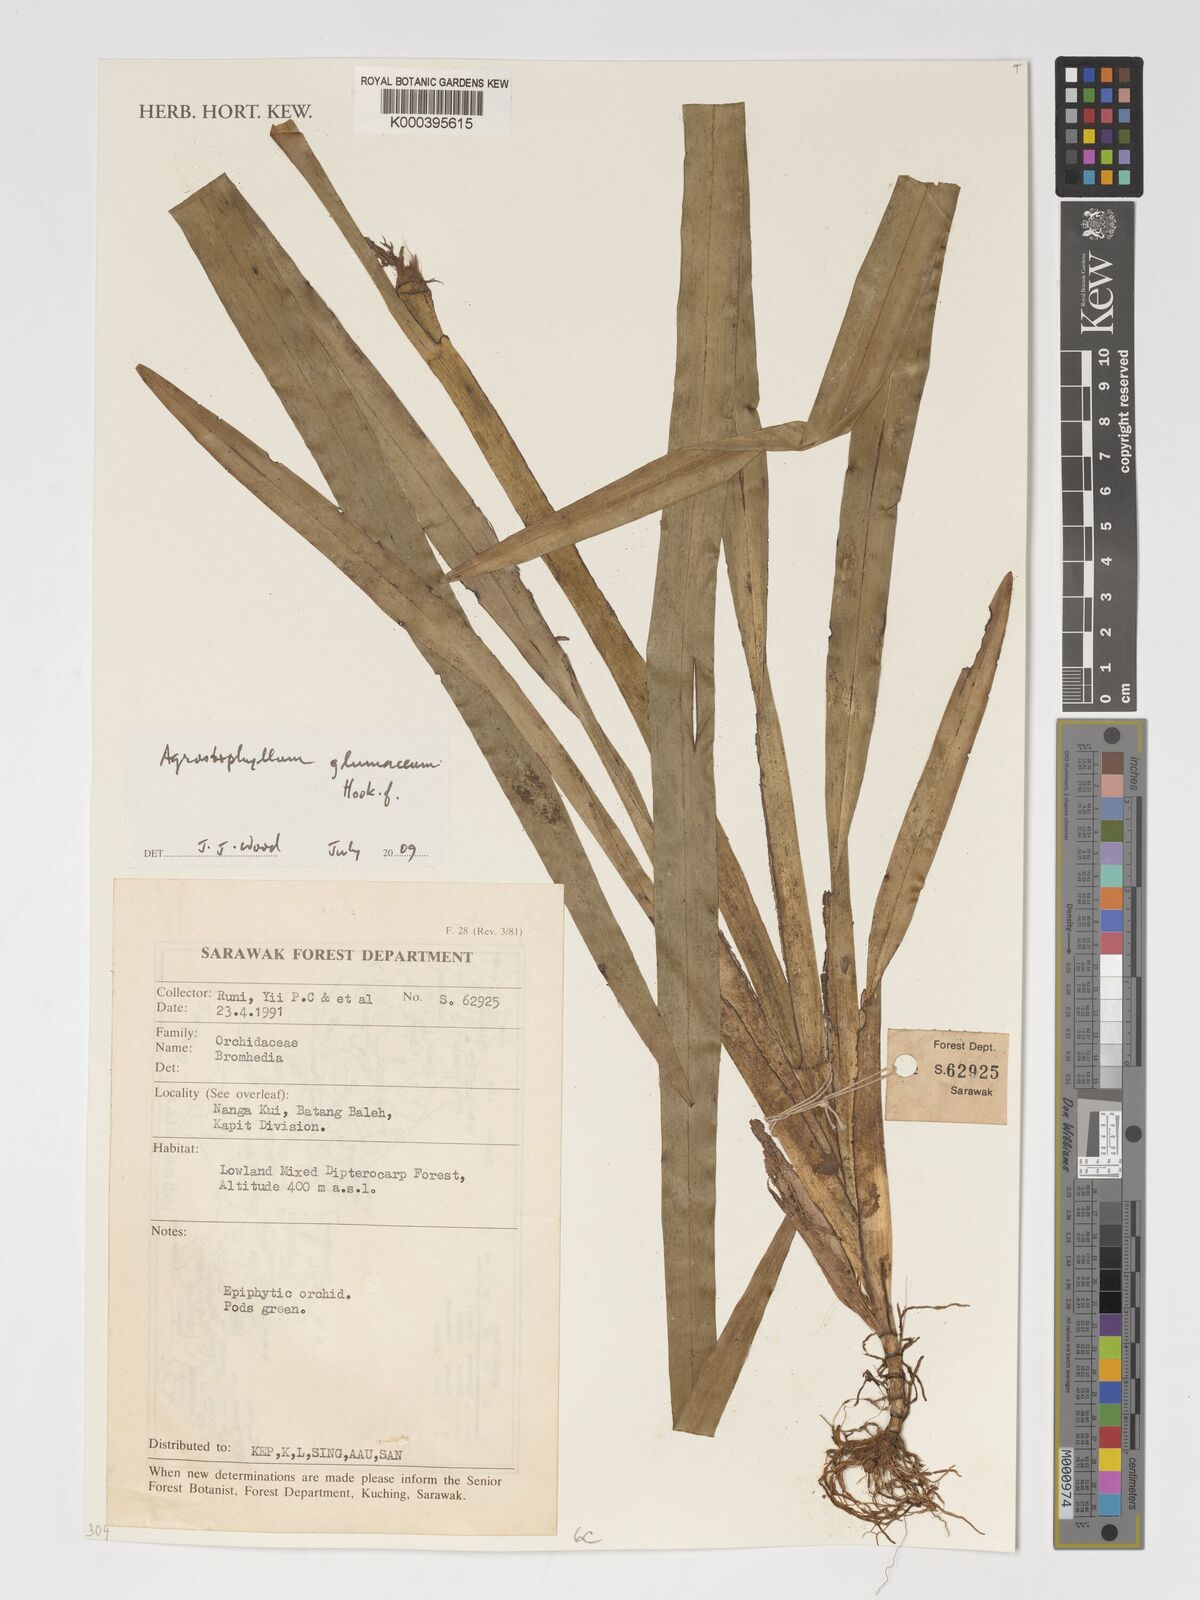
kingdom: Plantae
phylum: Tracheophyta
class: Liliopsida
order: Asparagales
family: Orchidaceae
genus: Agrostophyllum
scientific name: Agrostophyllum glumaceum
